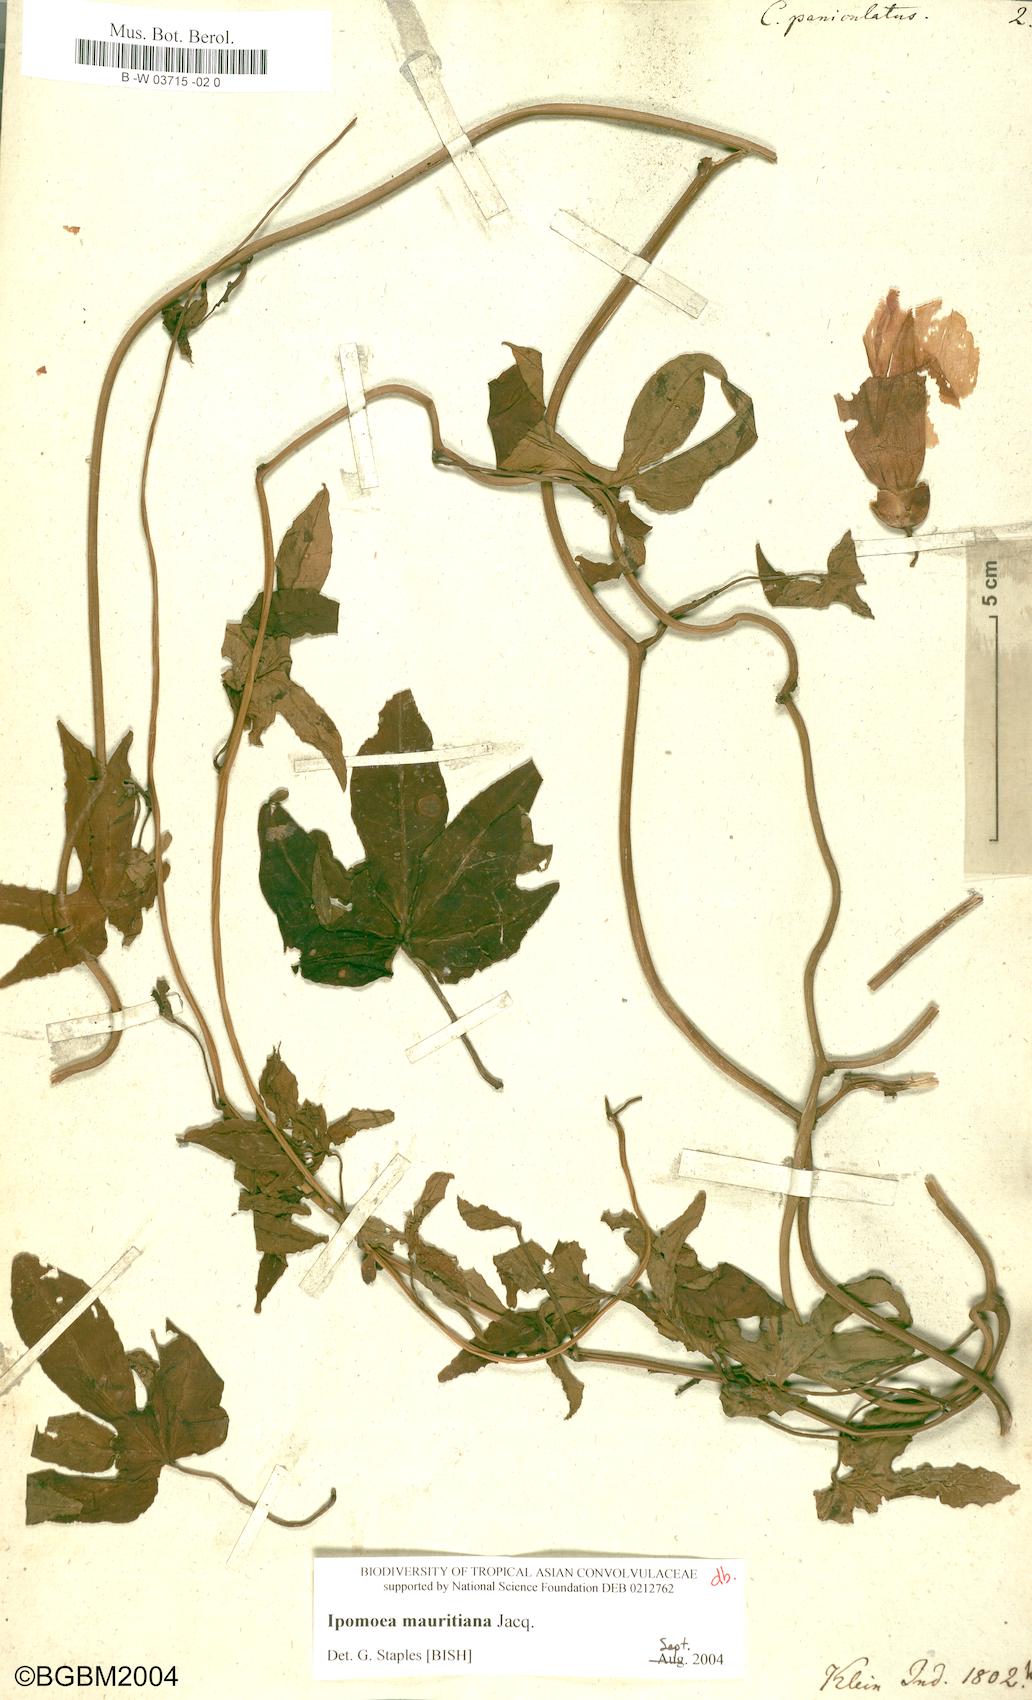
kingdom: Plantae
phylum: Tracheophyta
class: Magnoliopsida
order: Solanales
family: Convolvulaceae
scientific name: Convolvulaceae
